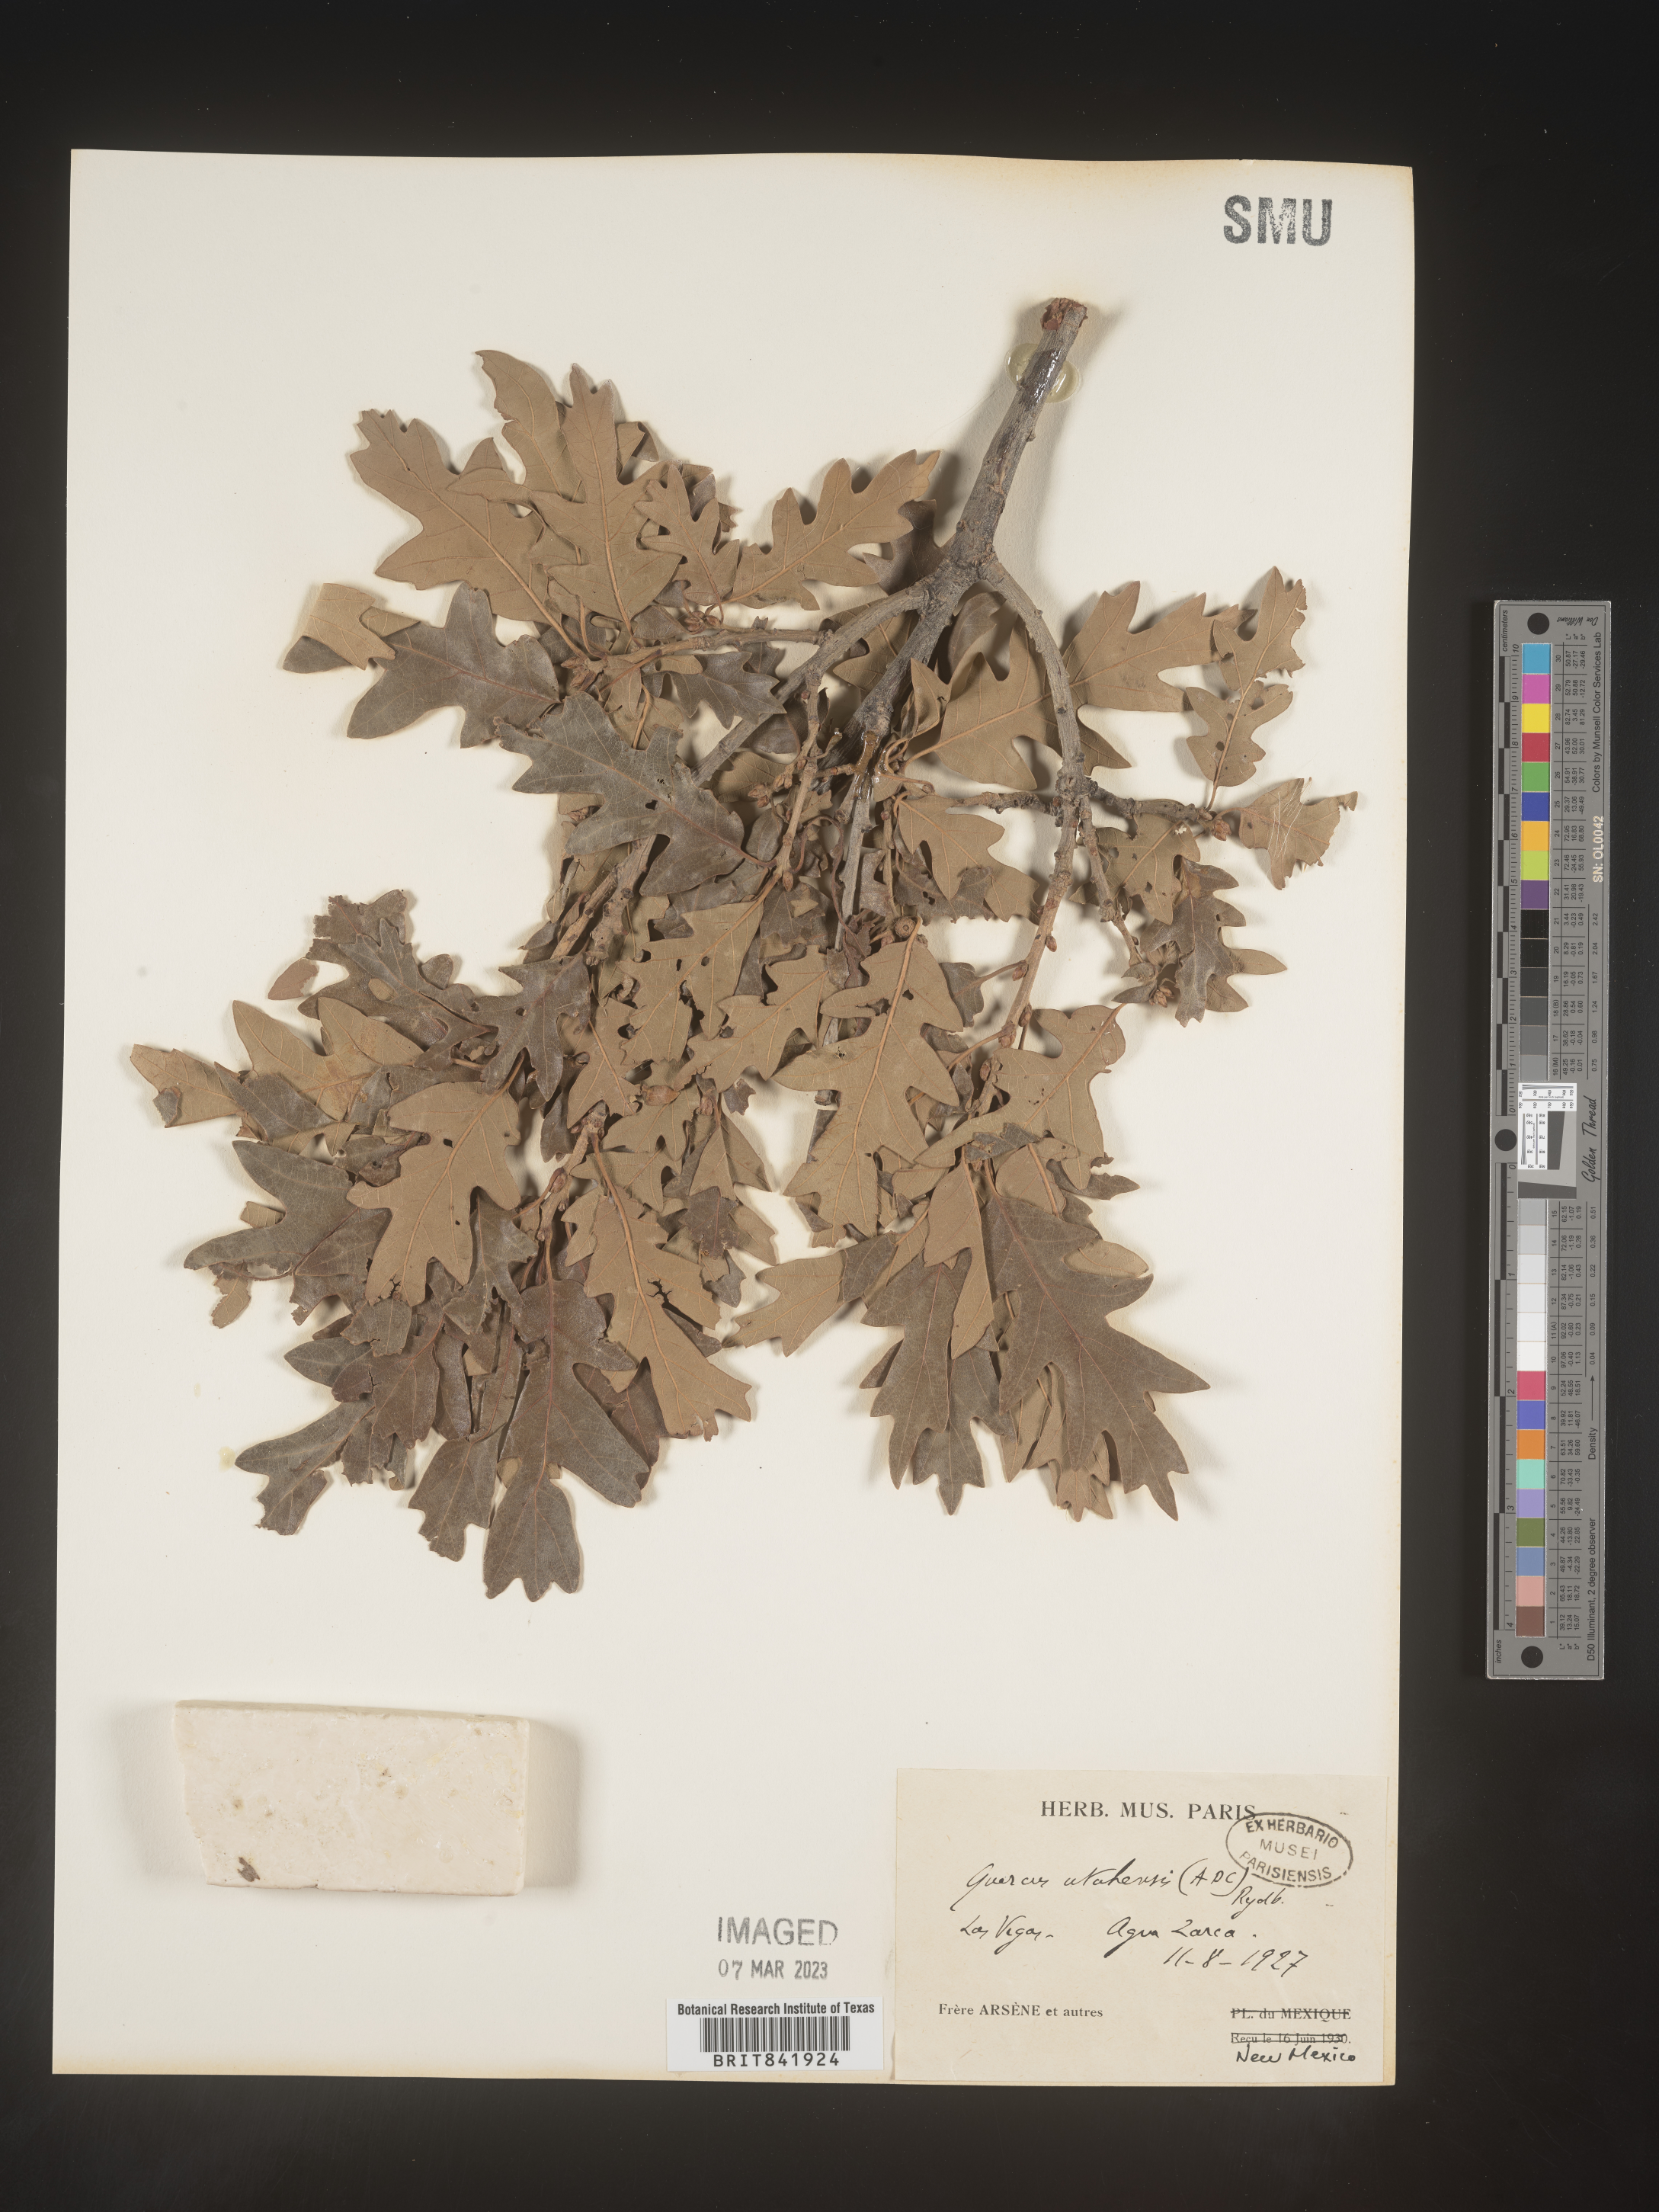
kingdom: Plantae
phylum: Tracheophyta
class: Magnoliopsida
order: Fagales
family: Fagaceae
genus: Quercus
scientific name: Quercus gambelii
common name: Gambel oak
